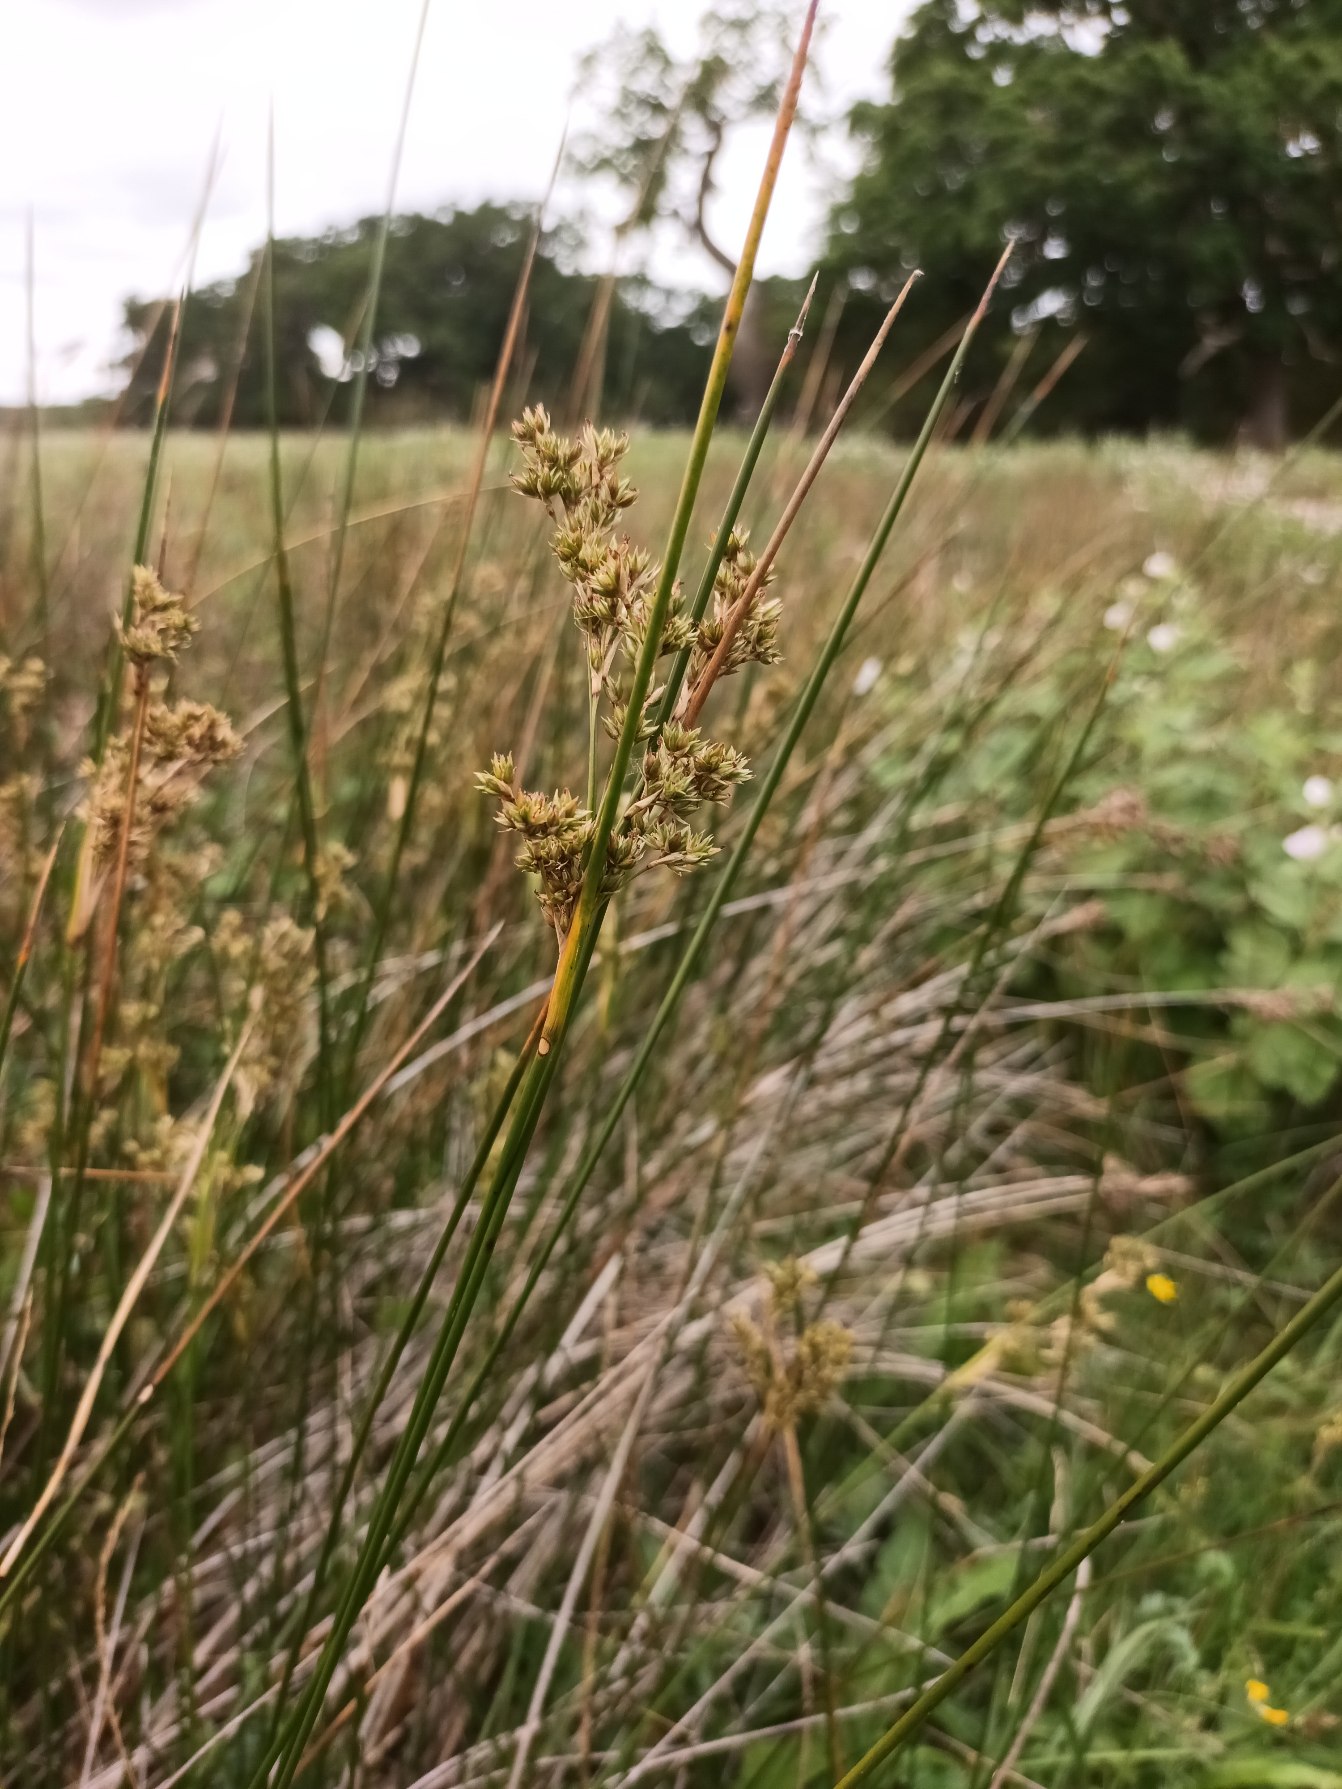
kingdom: Plantae
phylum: Tracheophyta
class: Liliopsida
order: Poales
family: Juncaceae
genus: Juncus
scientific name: Juncus maritimus
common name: Strand-siv
